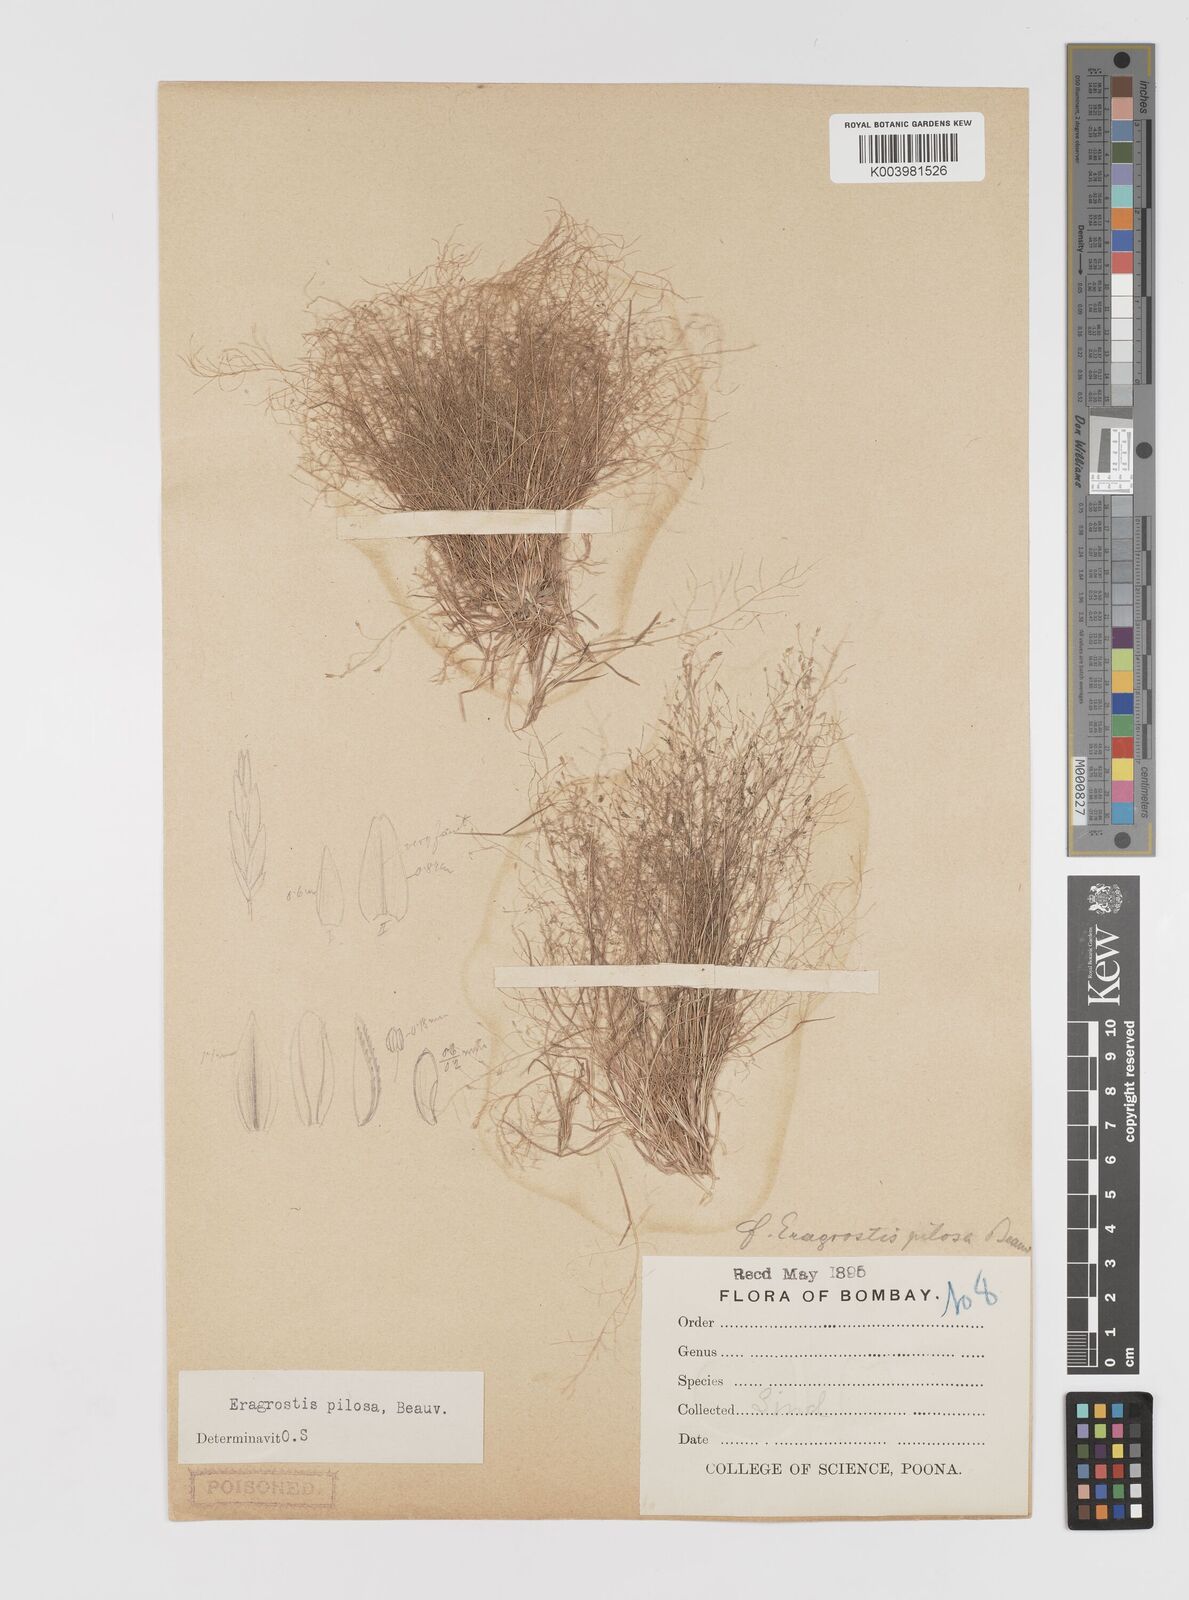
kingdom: Plantae
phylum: Tracheophyta
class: Liliopsida
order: Poales
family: Poaceae
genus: Eragrostis
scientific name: Eragrostis pilosa
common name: Indian lovegrass
